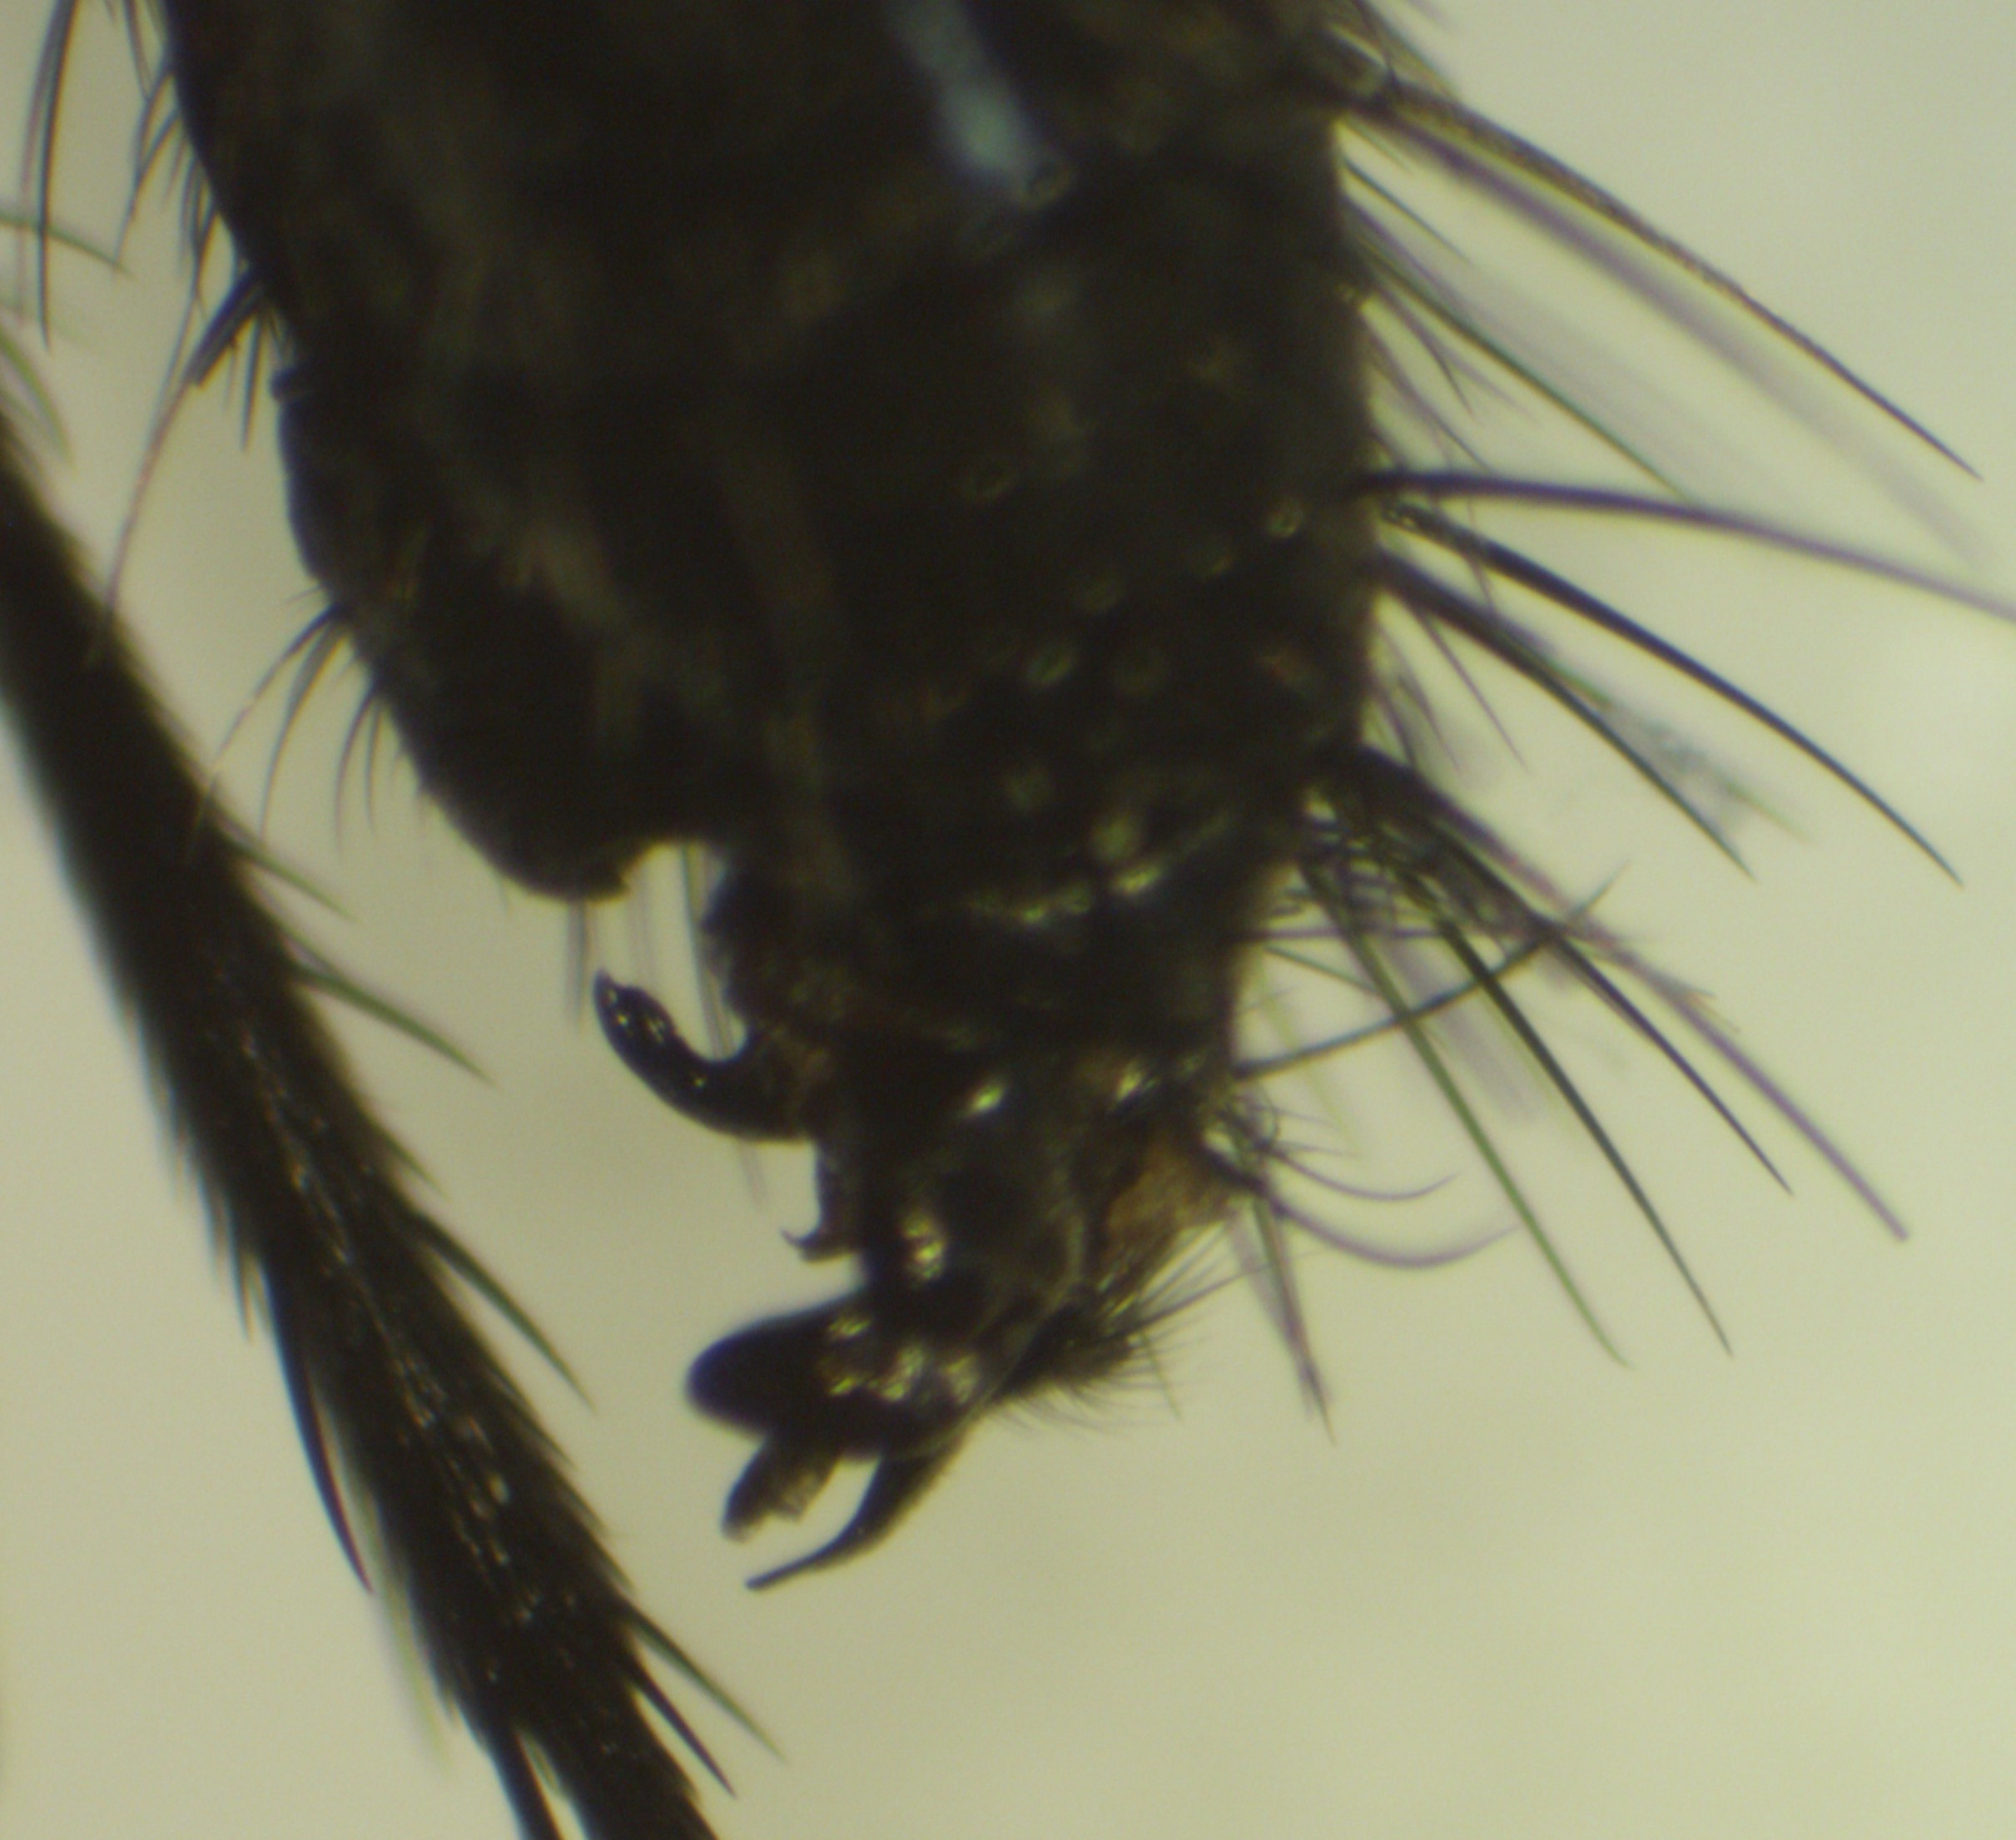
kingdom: Animalia
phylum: Arthropoda
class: Insecta
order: Diptera
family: Tachinidae
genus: Lydina
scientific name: Lydina aenea
